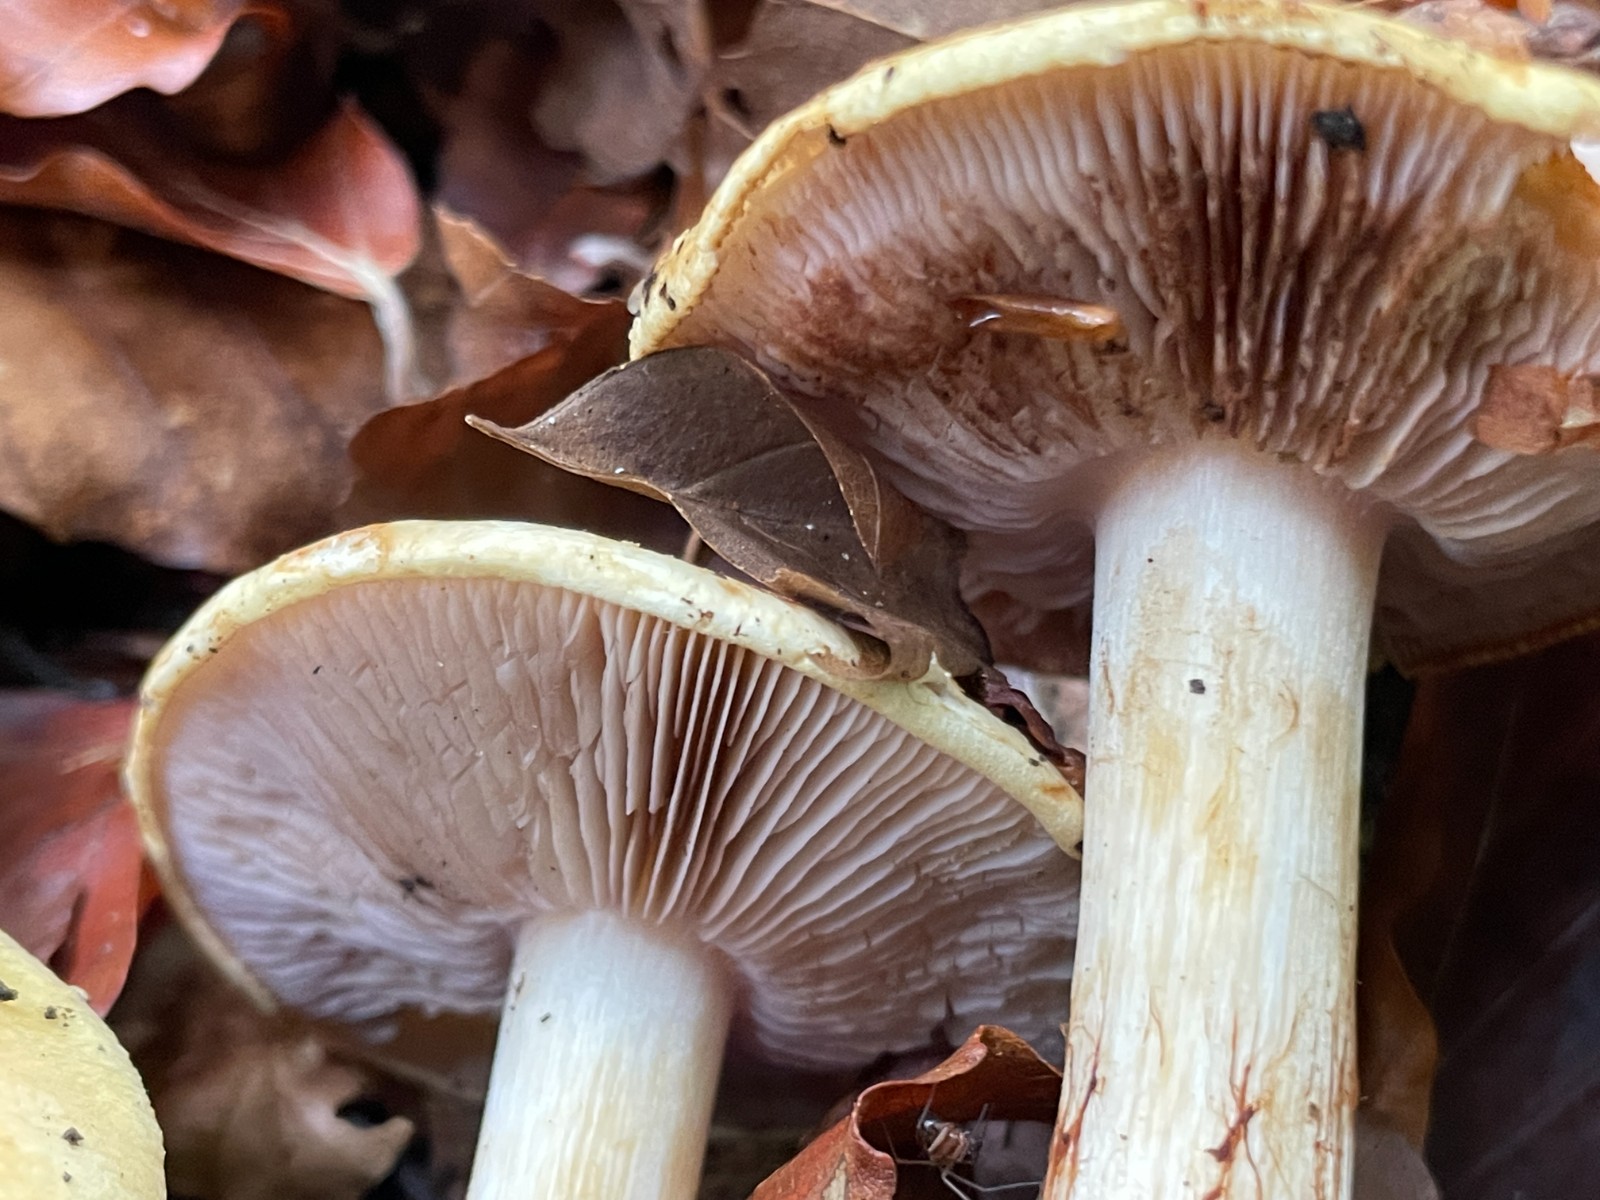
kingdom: Fungi
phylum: Basidiomycota
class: Agaricomycetes
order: Agaricales
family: Cortinariaceae
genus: Calonarius
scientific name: Calonarius callochrous
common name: lillabladet slørhat
